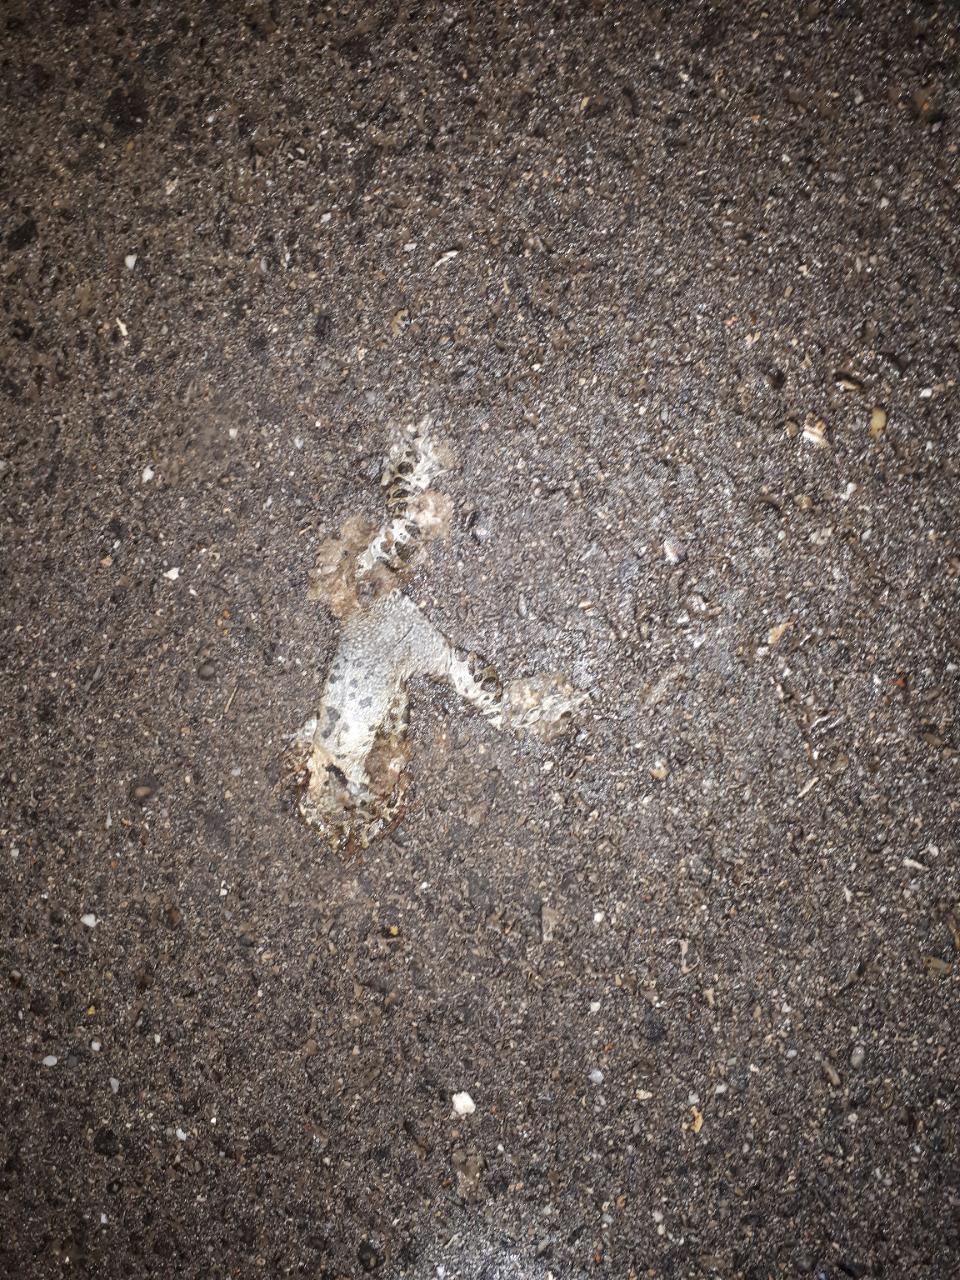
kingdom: Animalia
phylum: Chordata
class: Amphibia
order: Anura
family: Bufonidae
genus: Bufotes
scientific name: Bufotes viridis
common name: European green toad
